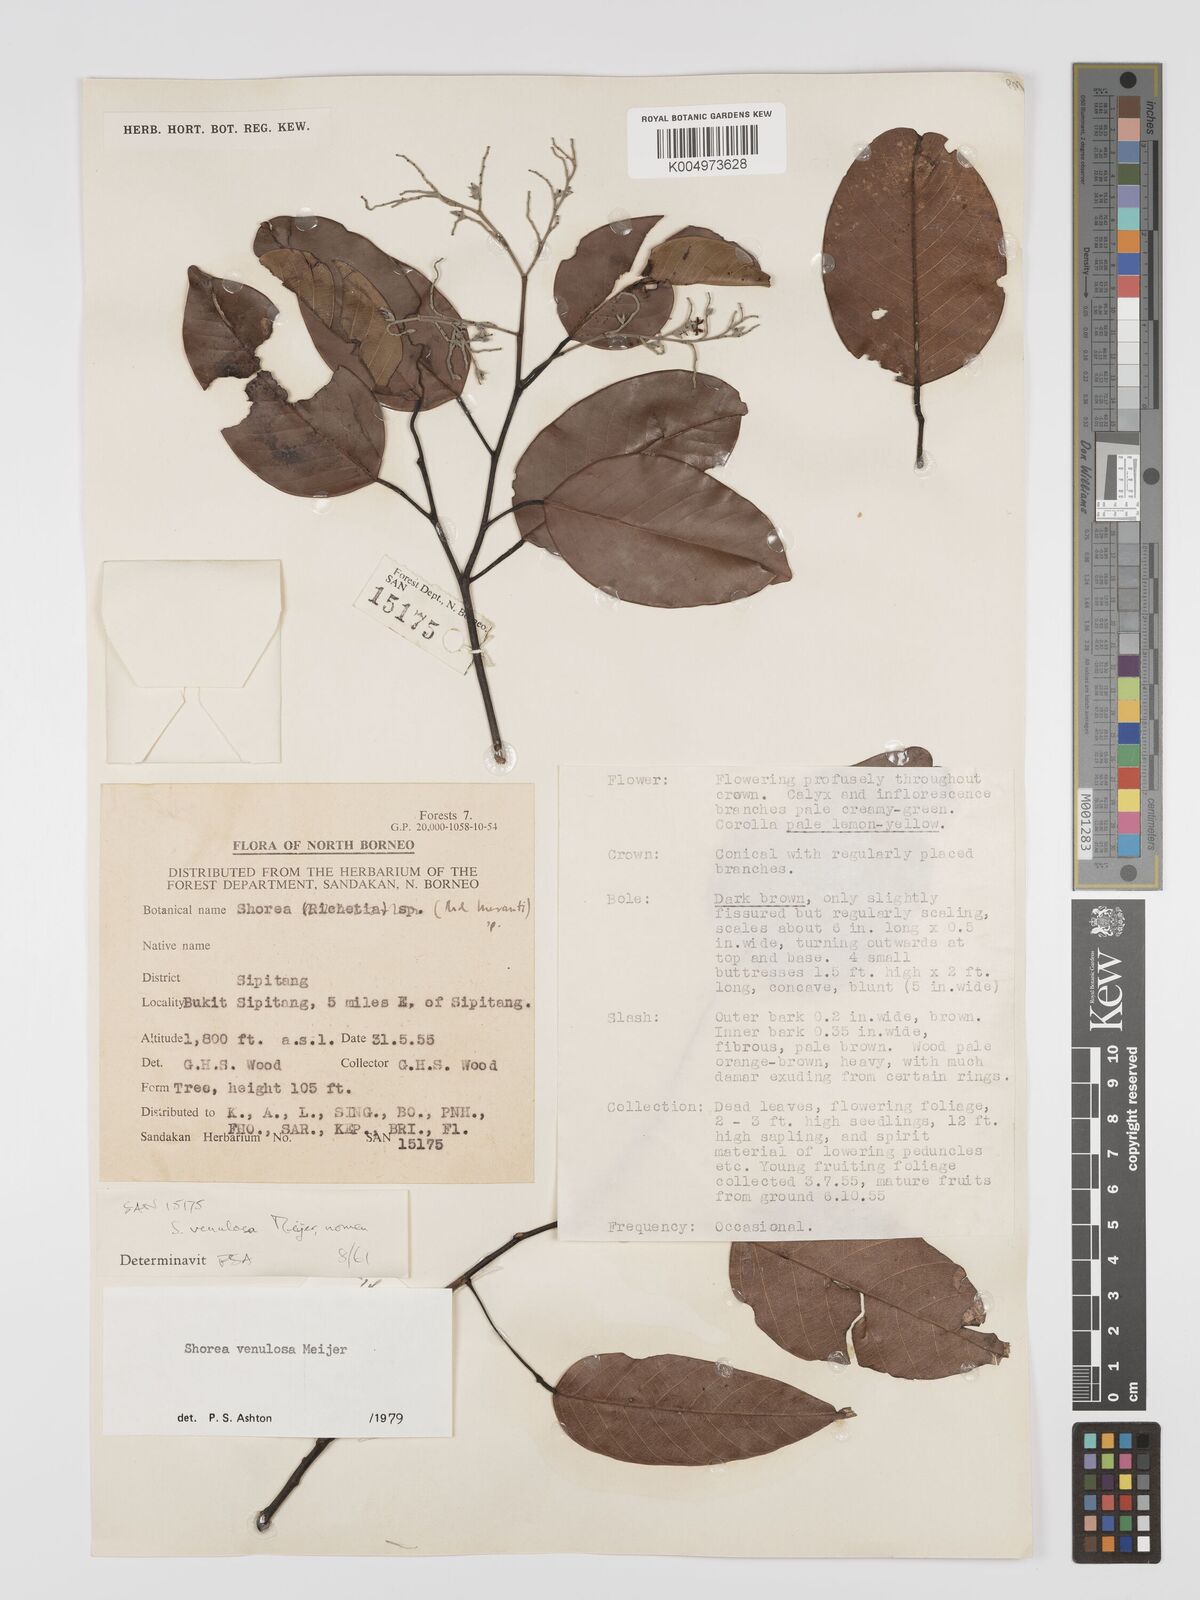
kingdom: Plantae
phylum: Tracheophyta
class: Magnoliopsida
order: Malvales
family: Dipterocarpaceae
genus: Shorea
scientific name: Shorea venulosa
